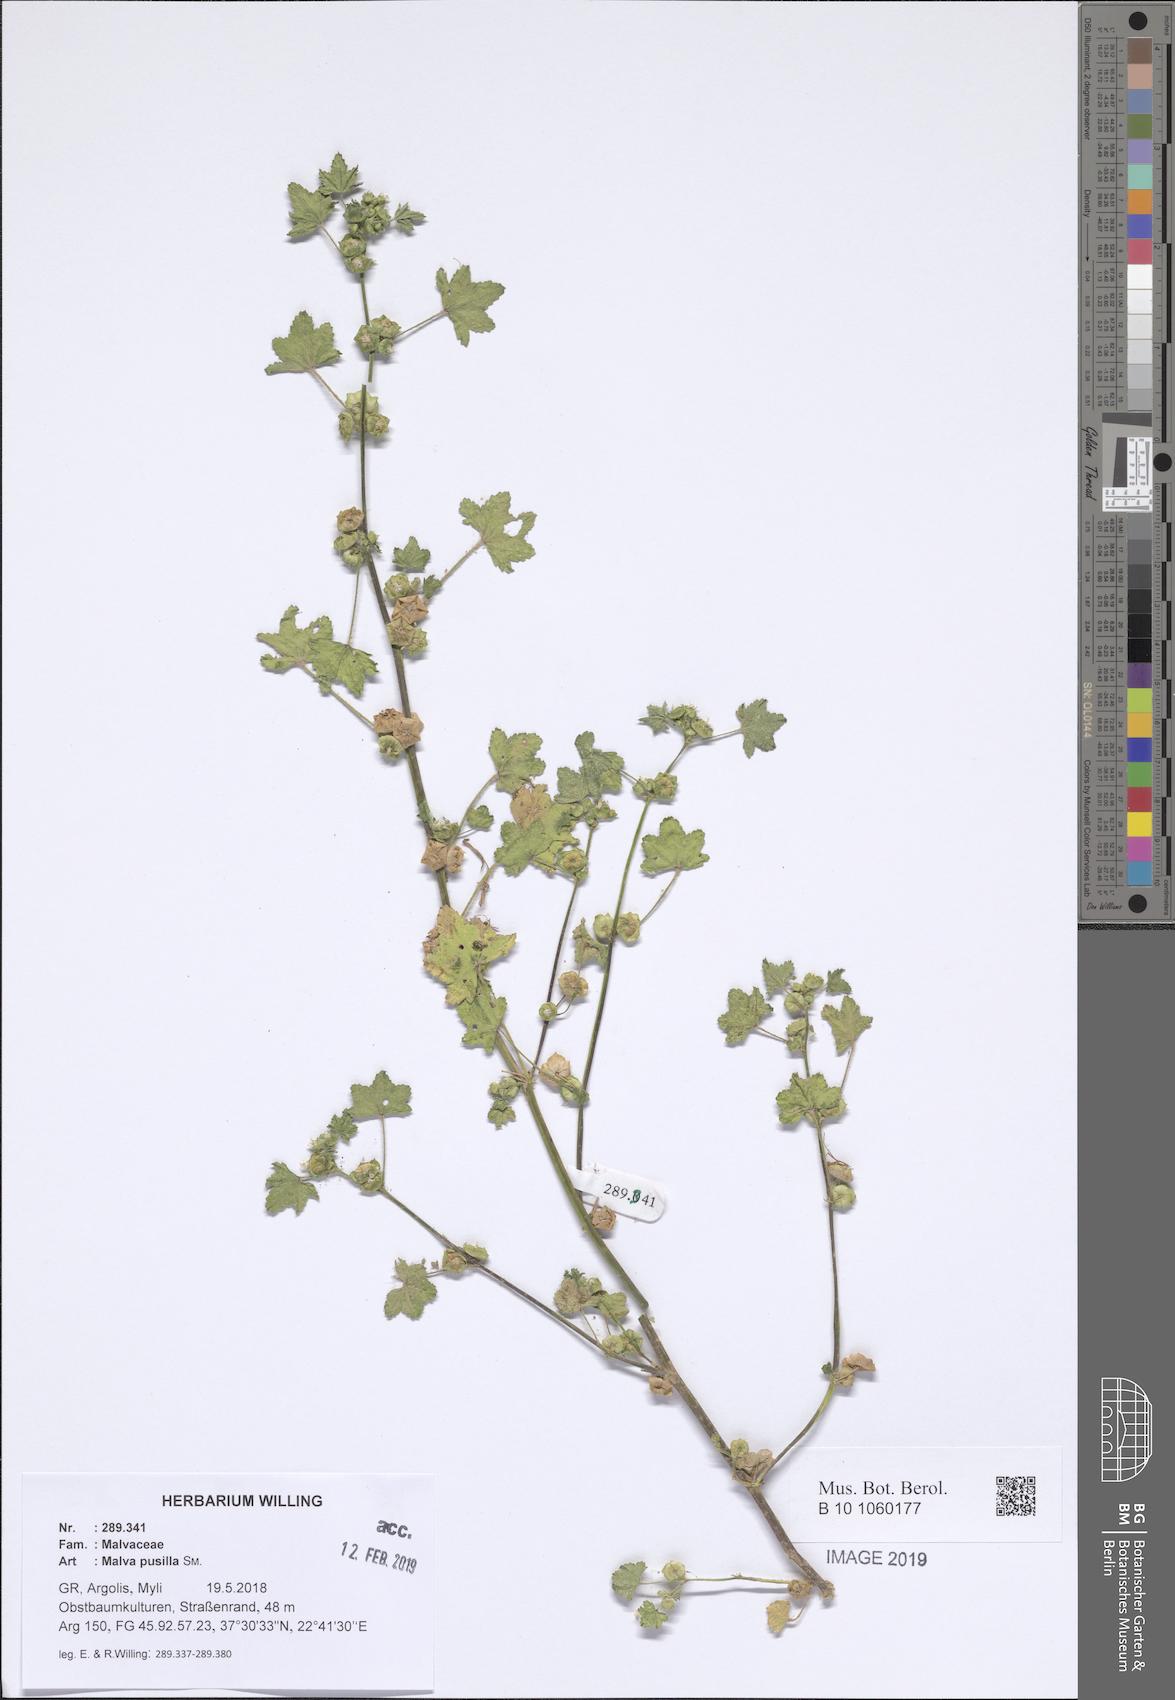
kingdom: Plantae
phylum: Tracheophyta
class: Magnoliopsida
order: Malvales
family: Malvaceae
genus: Malva
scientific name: Malva parviflora
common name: Least mallow
